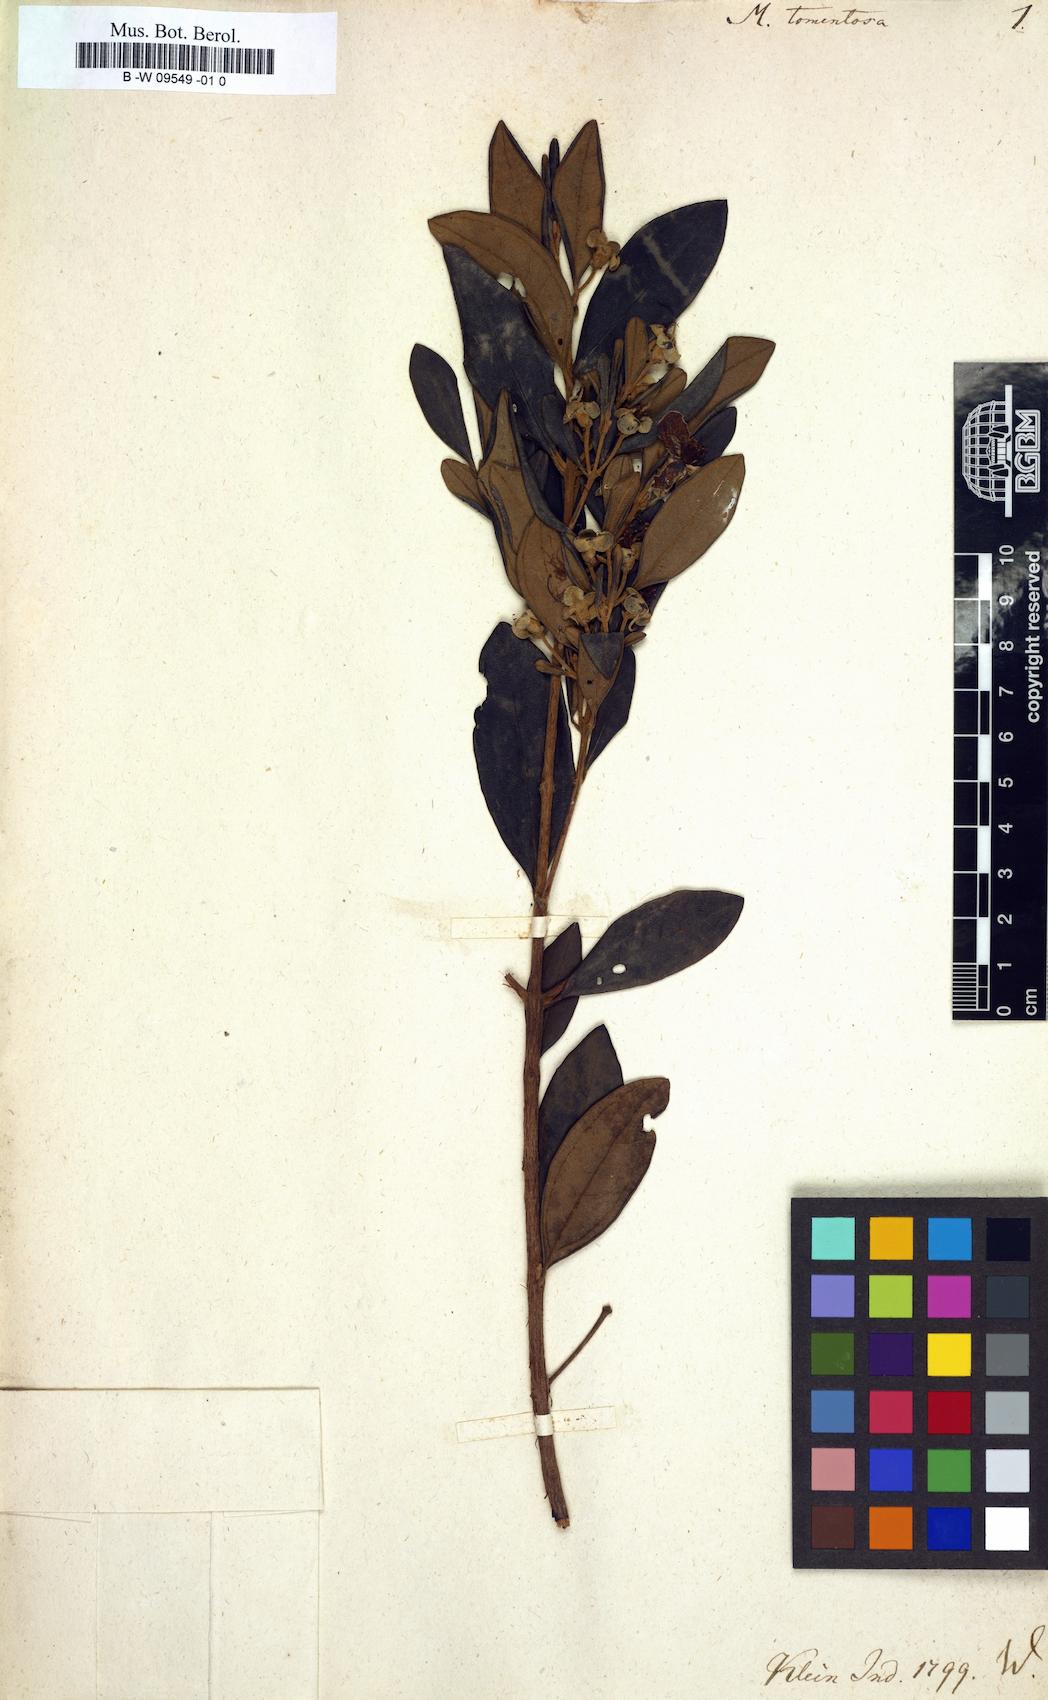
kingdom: Plantae
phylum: Tracheophyta
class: Magnoliopsida
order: Myrtales
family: Myrtaceae
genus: Rhodomyrtus
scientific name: Rhodomyrtus tomentosa
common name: Rose myrtle
